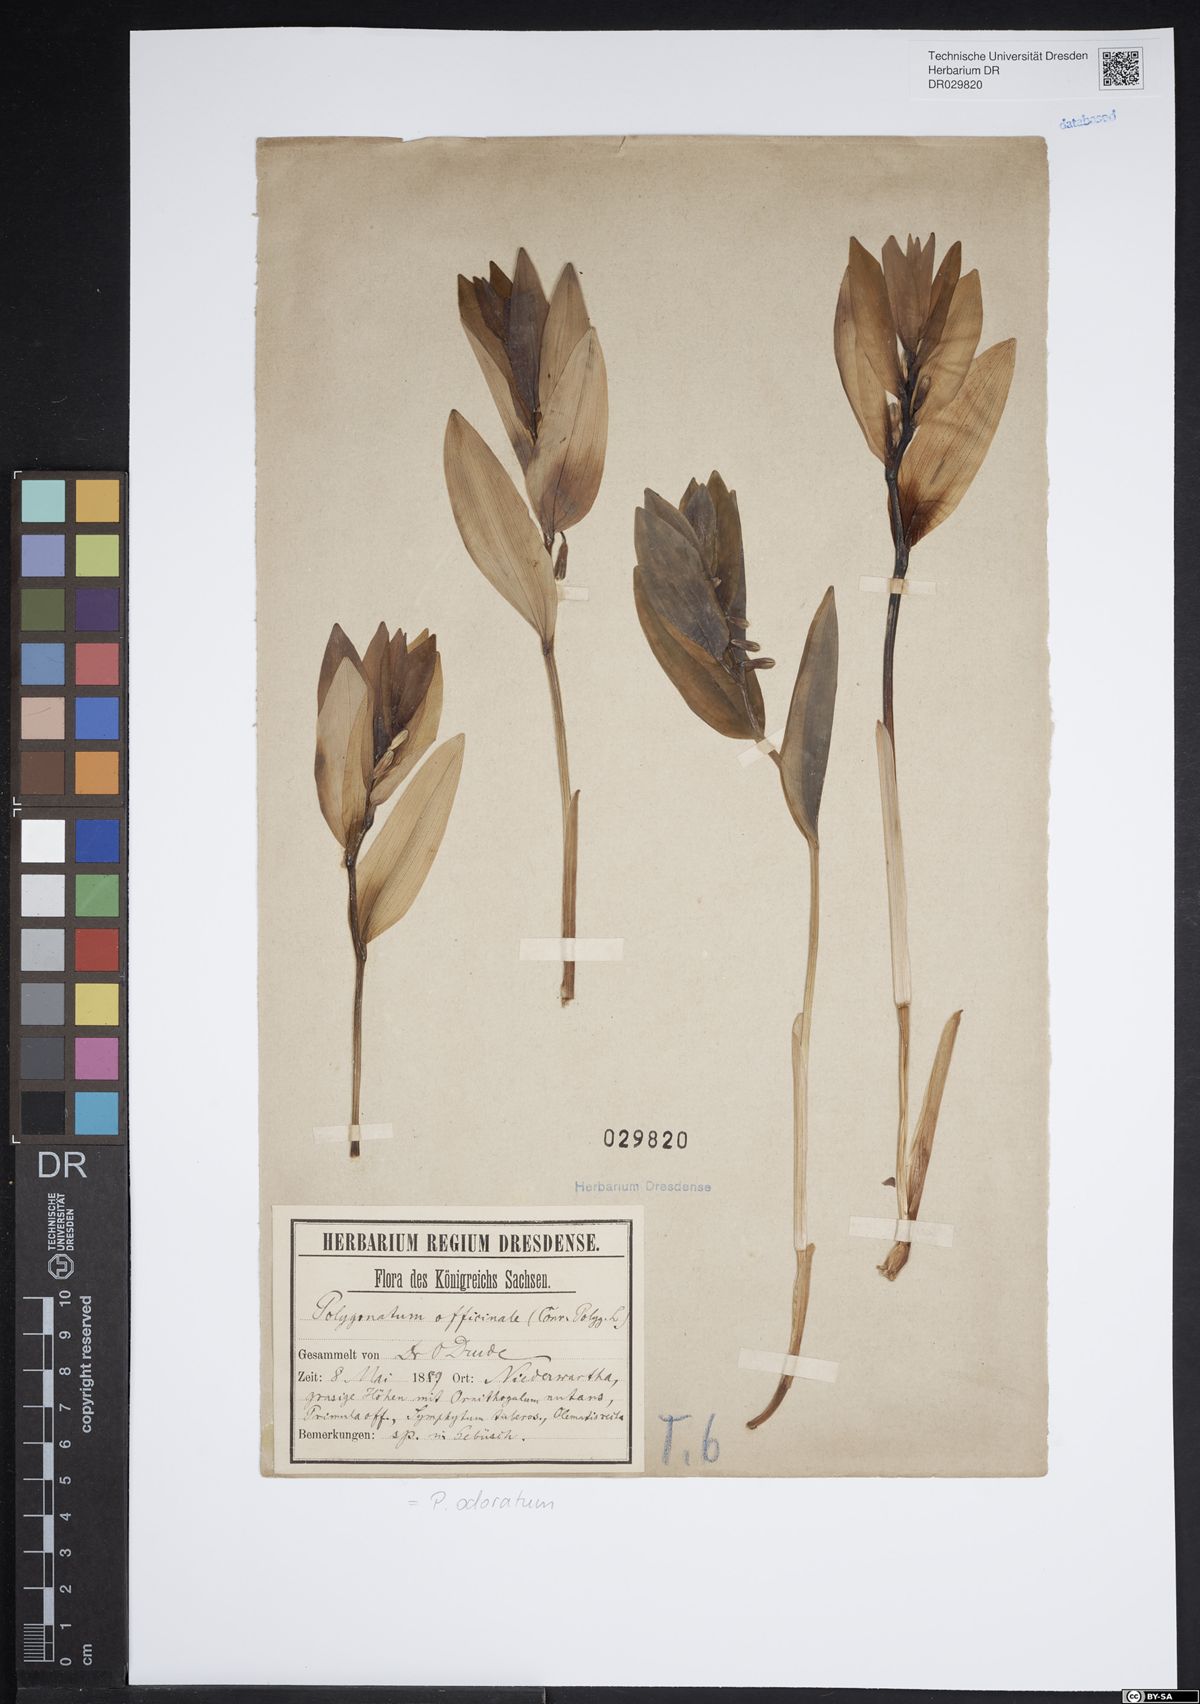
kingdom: Plantae
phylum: Tracheophyta
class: Liliopsida
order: Asparagales
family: Asparagaceae
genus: Polygonatum
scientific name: Polygonatum odoratum
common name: Angular solomon's-seal
